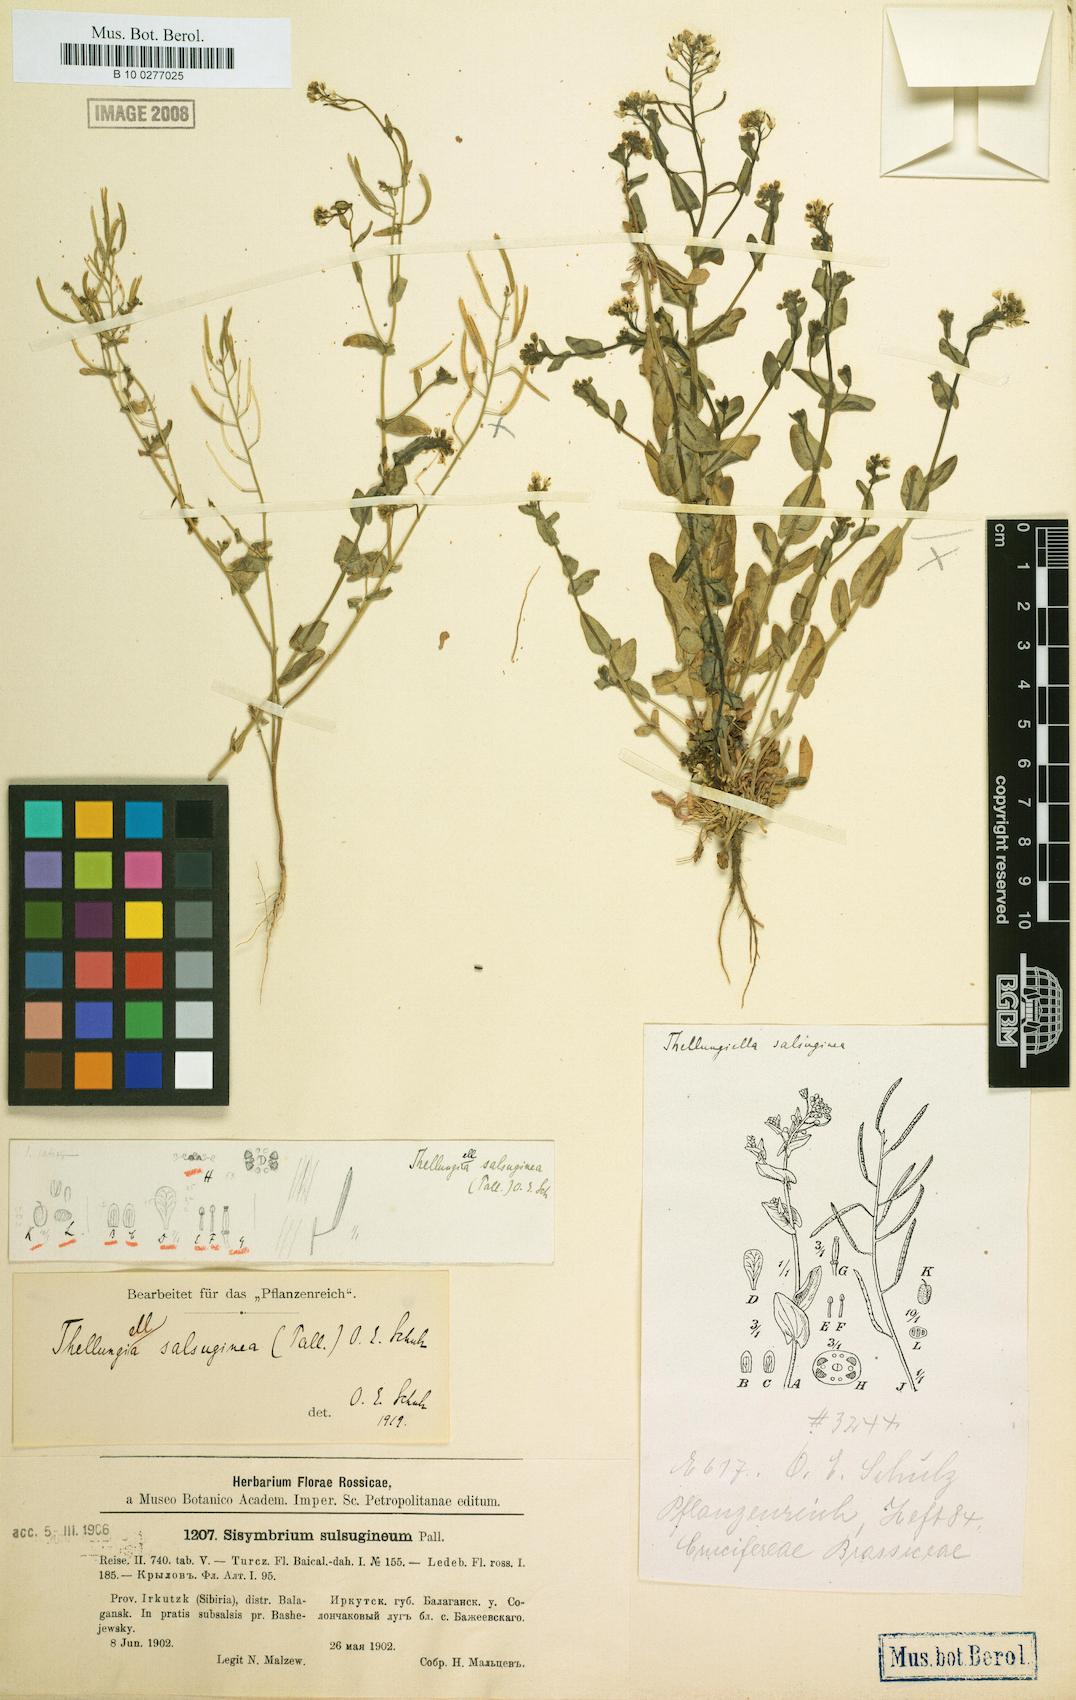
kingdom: Plantae
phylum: Tracheophyta
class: Magnoliopsida
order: Brassicales
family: Brassicaceae
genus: Eutrema
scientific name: Eutrema salsugineum
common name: Mouse-ear cress
